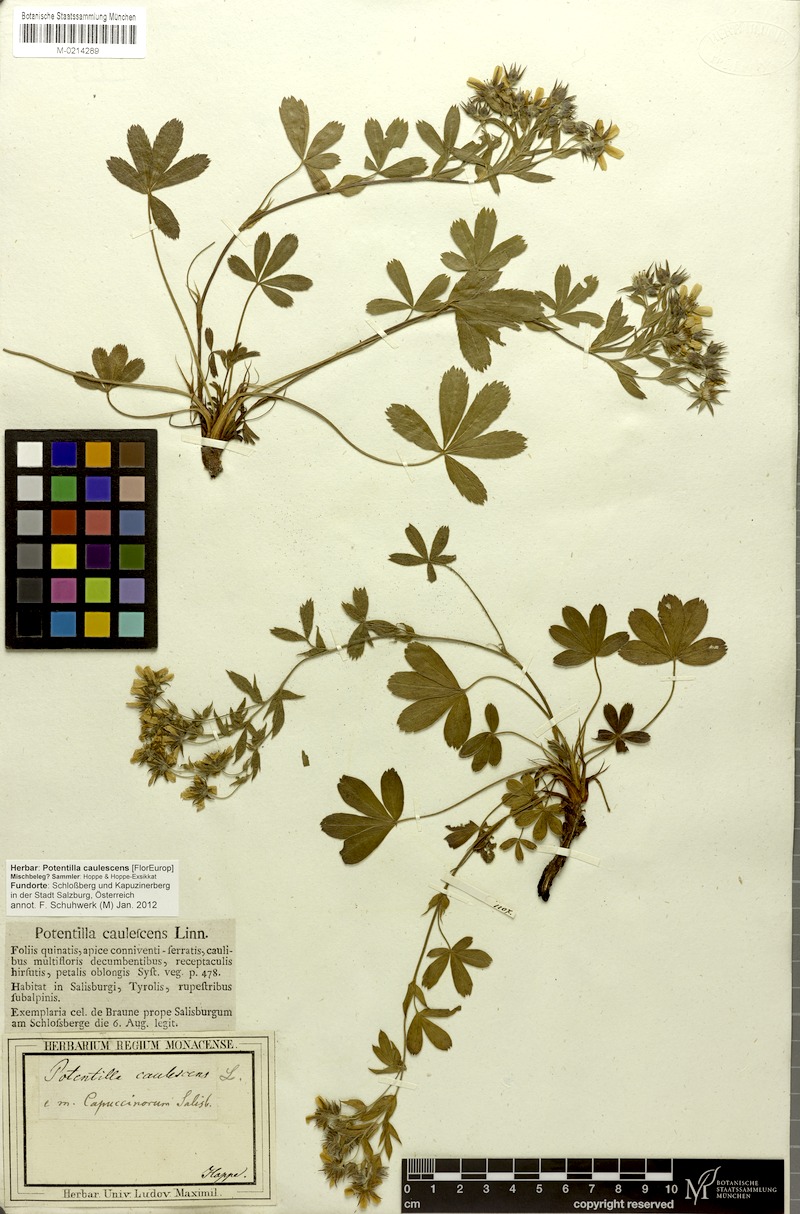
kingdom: Plantae
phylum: Tracheophyta
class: Magnoliopsida
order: Rosales
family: Rosaceae
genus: Potentilla
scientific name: Potentilla caulescens
